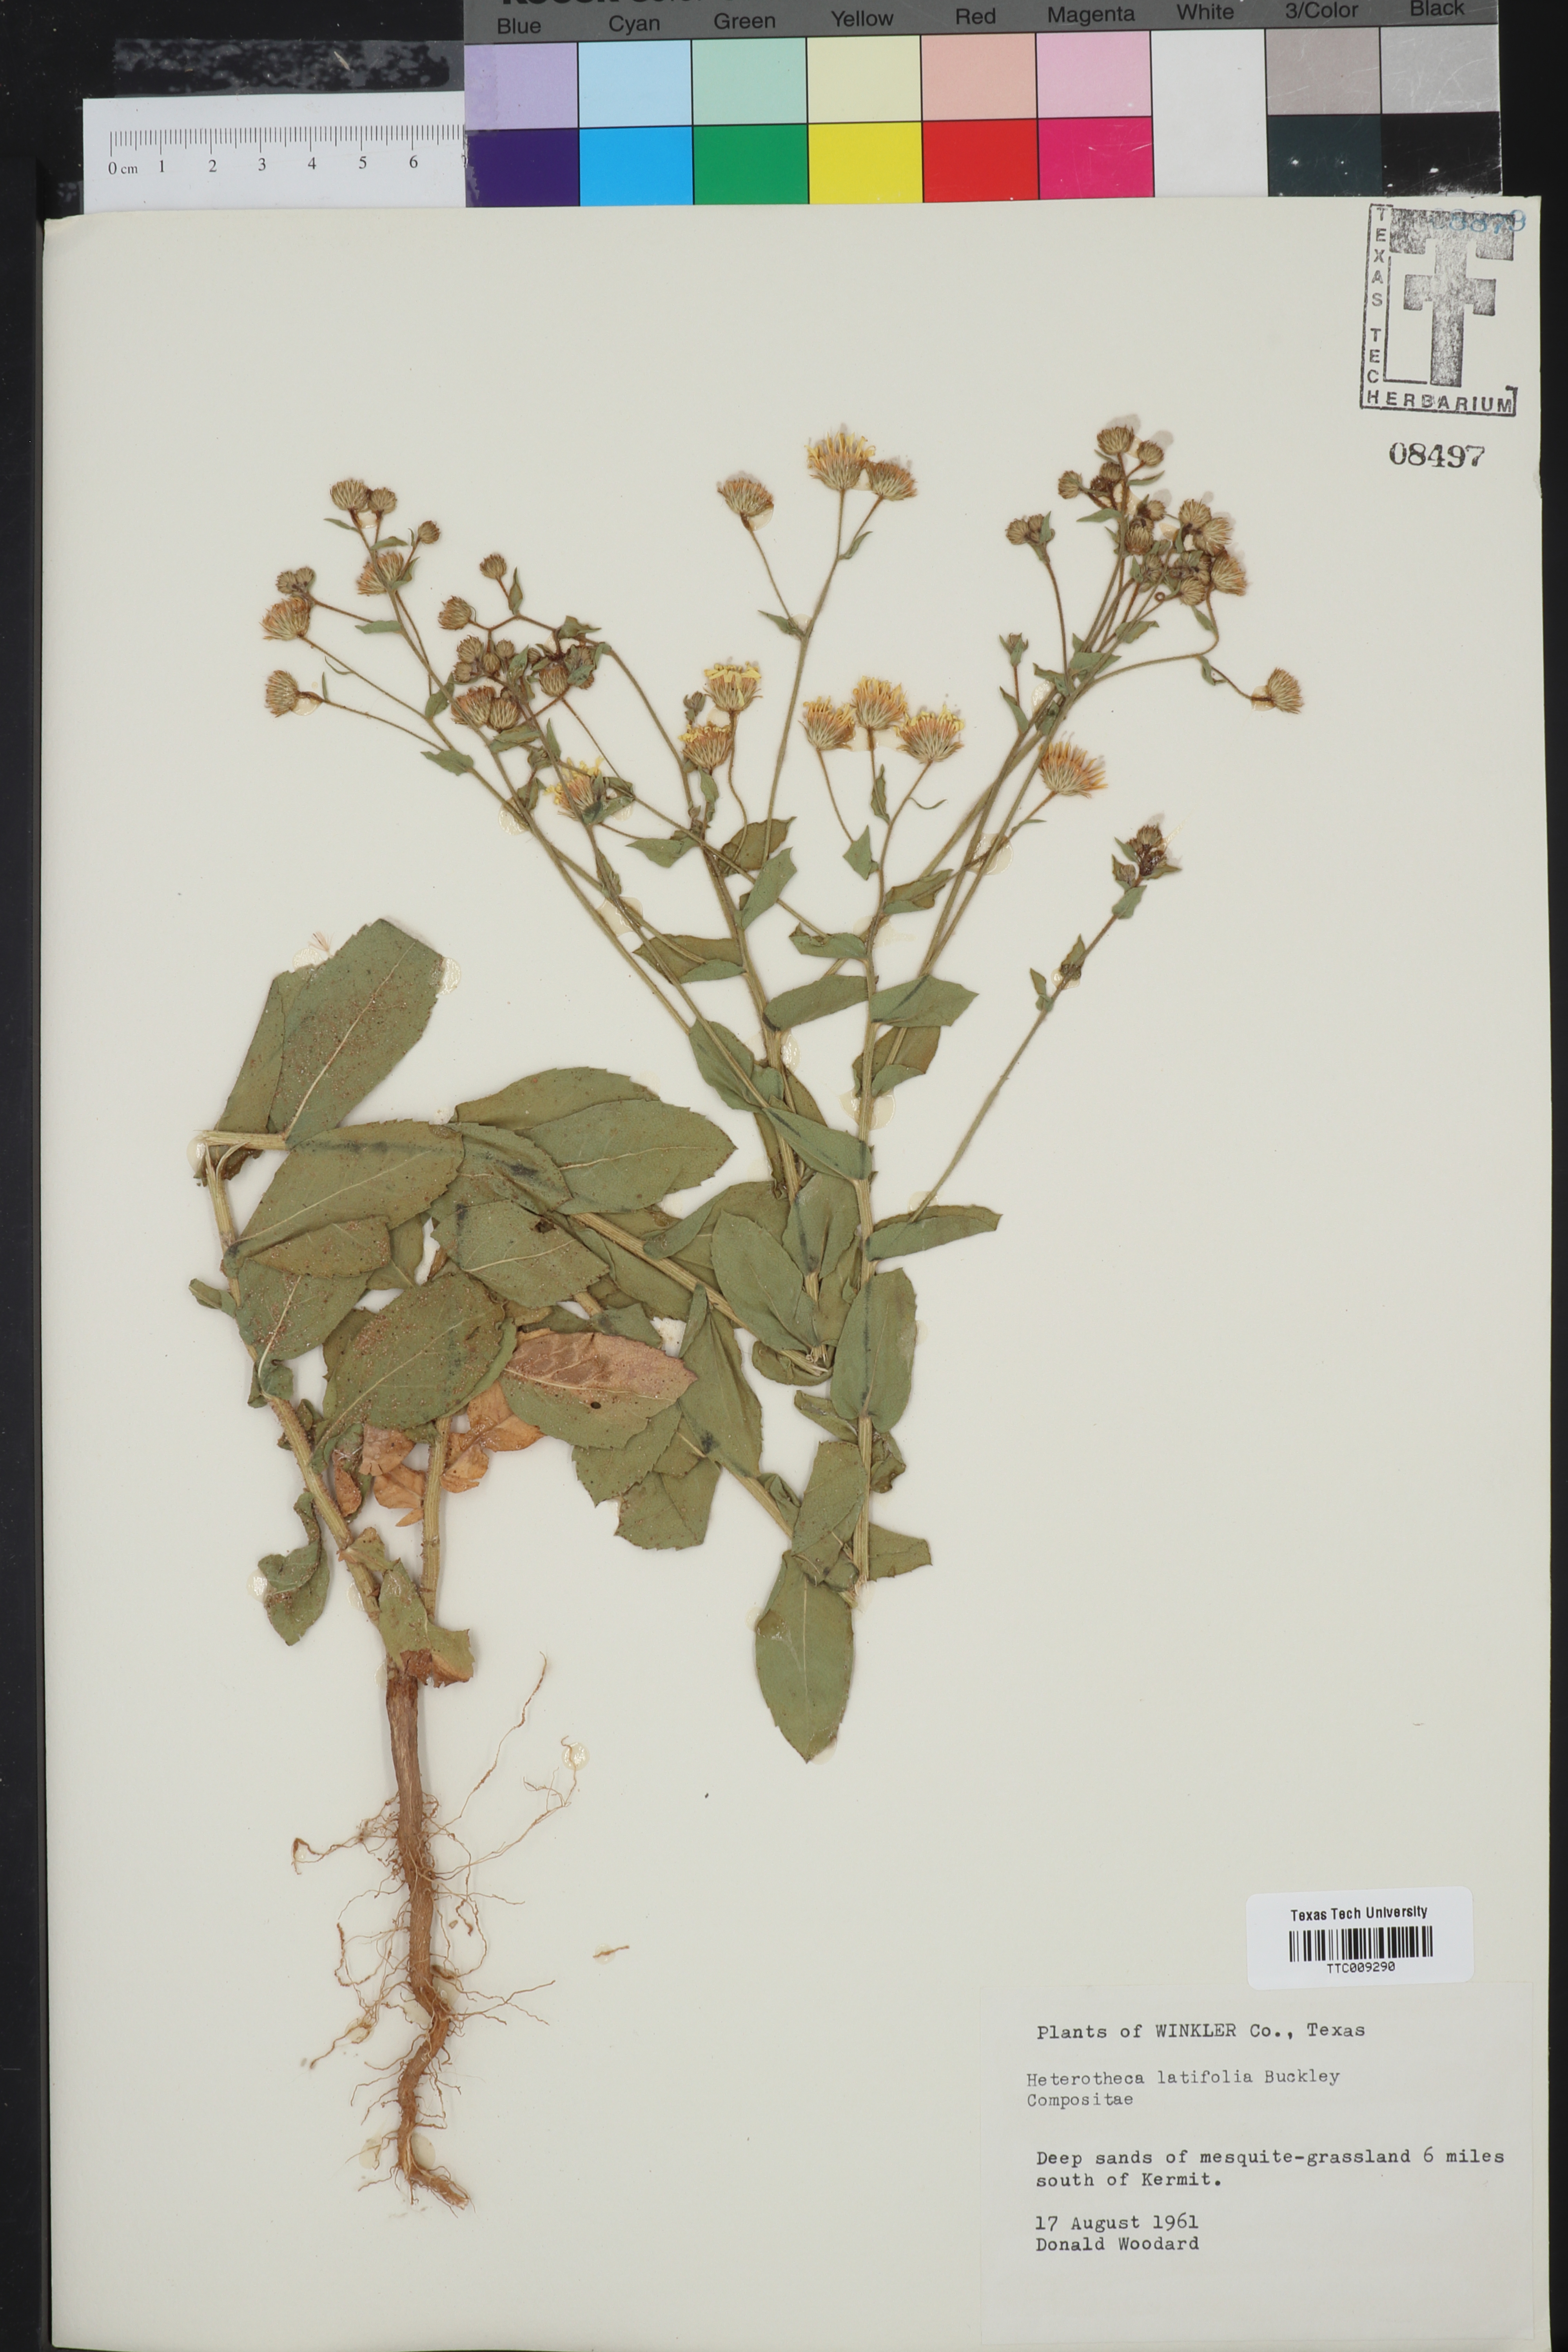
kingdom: Plantae
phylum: Tracheophyta
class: Magnoliopsida
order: Asterales
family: Asteraceae
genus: Heterotheca
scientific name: Heterotheca subaxillaris
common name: Camphorweed
